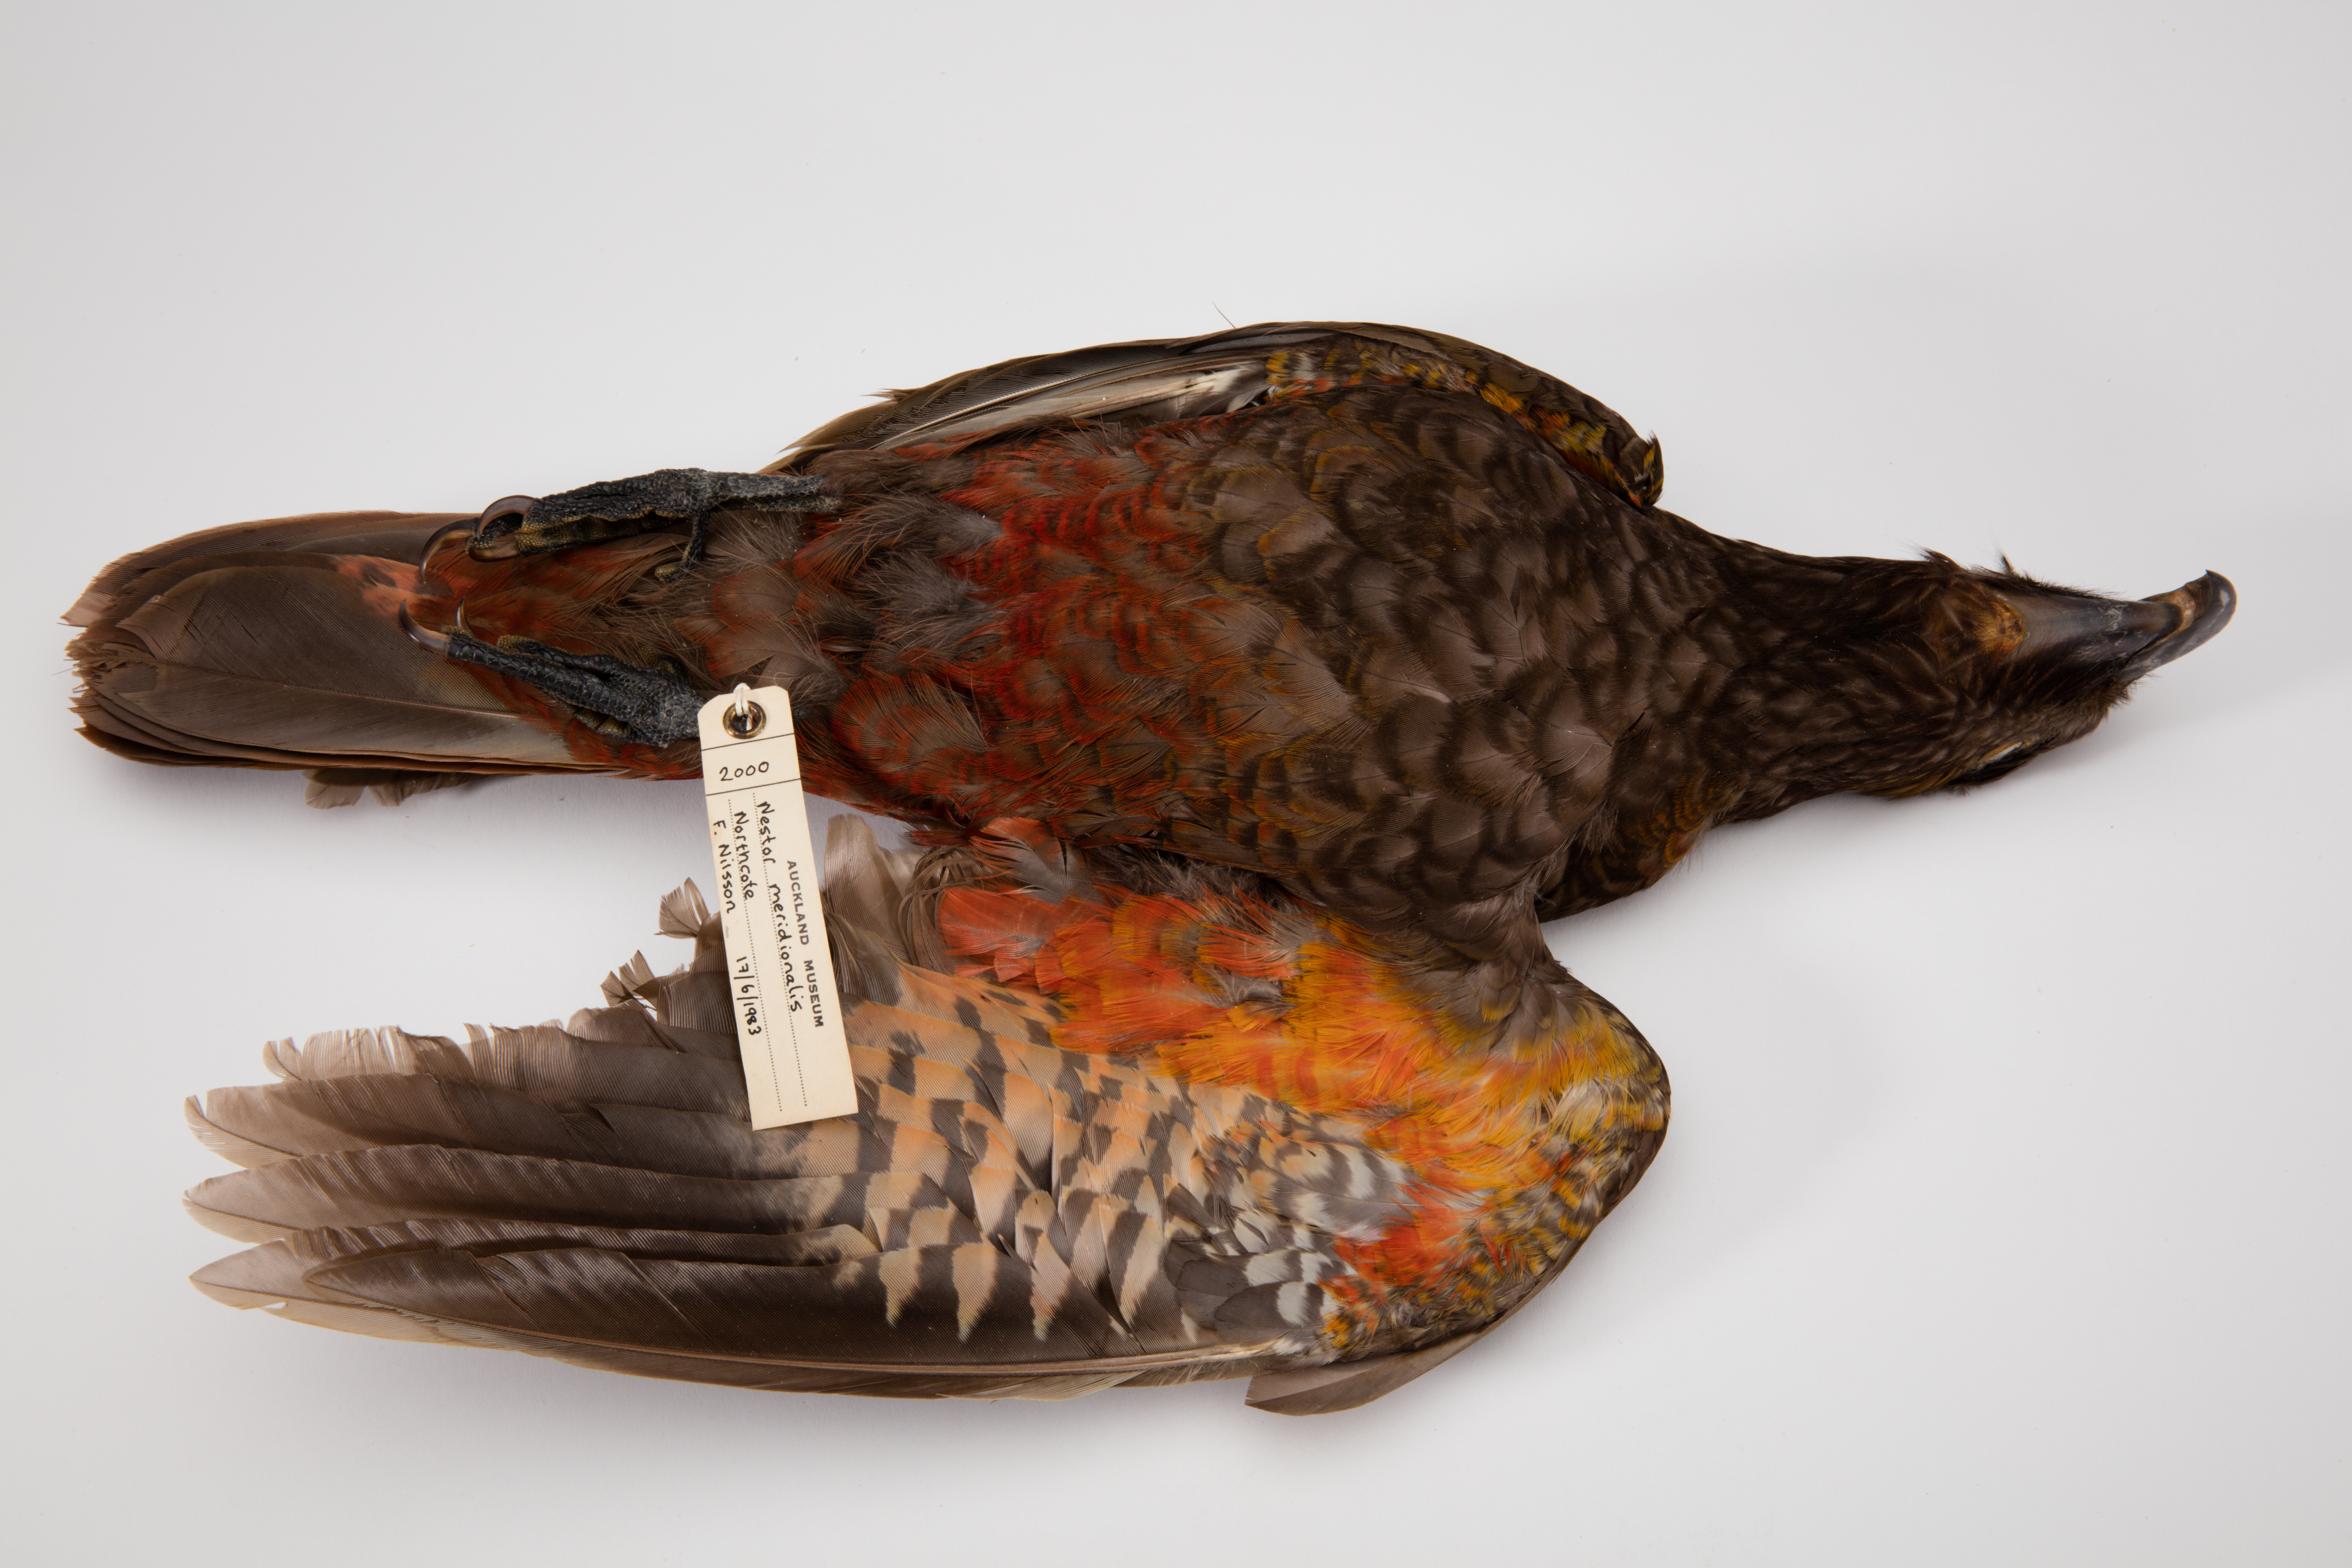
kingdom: Animalia
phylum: Chordata
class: Aves
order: Psittaciformes
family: Psittacidae
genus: Nestor
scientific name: Nestor meridionalis
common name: New zealand kaka
